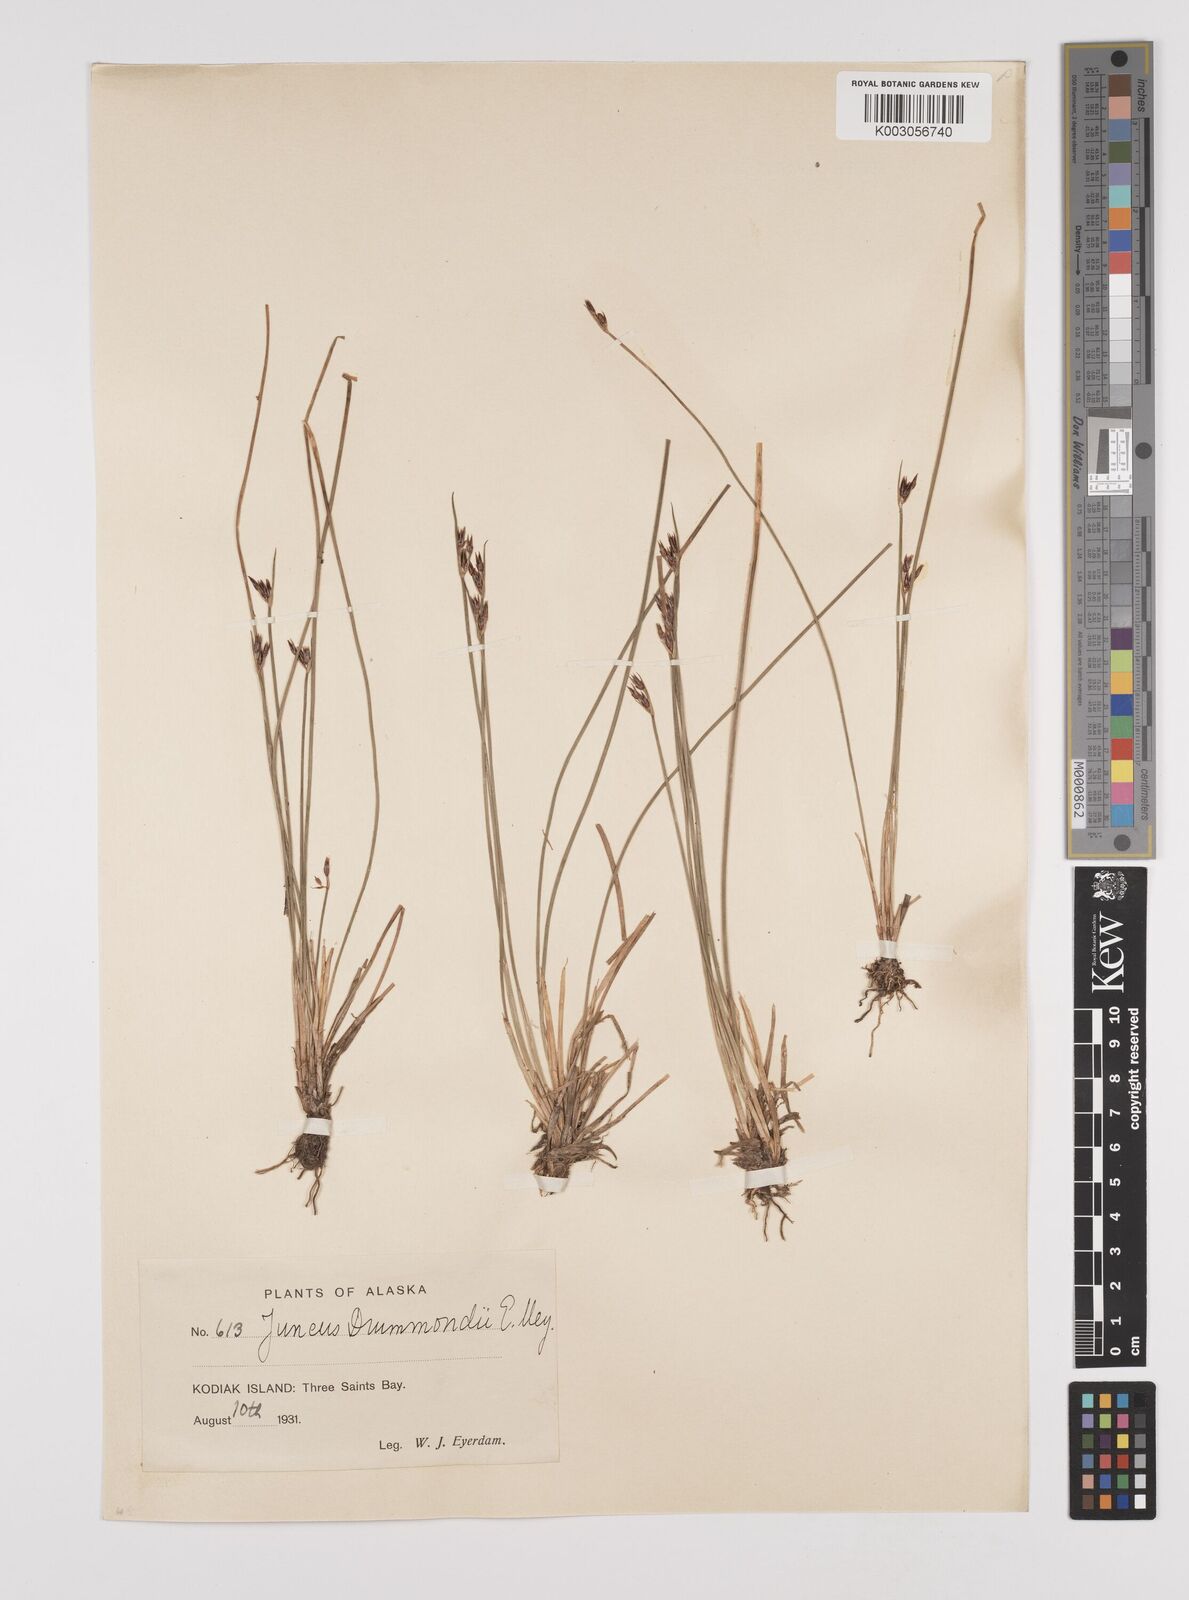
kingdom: Plantae
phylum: Tracheophyta
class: Liliopsida
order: Poales
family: Juncaceae
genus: Juncus
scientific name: Juncus drummondii
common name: Drummond's rush
